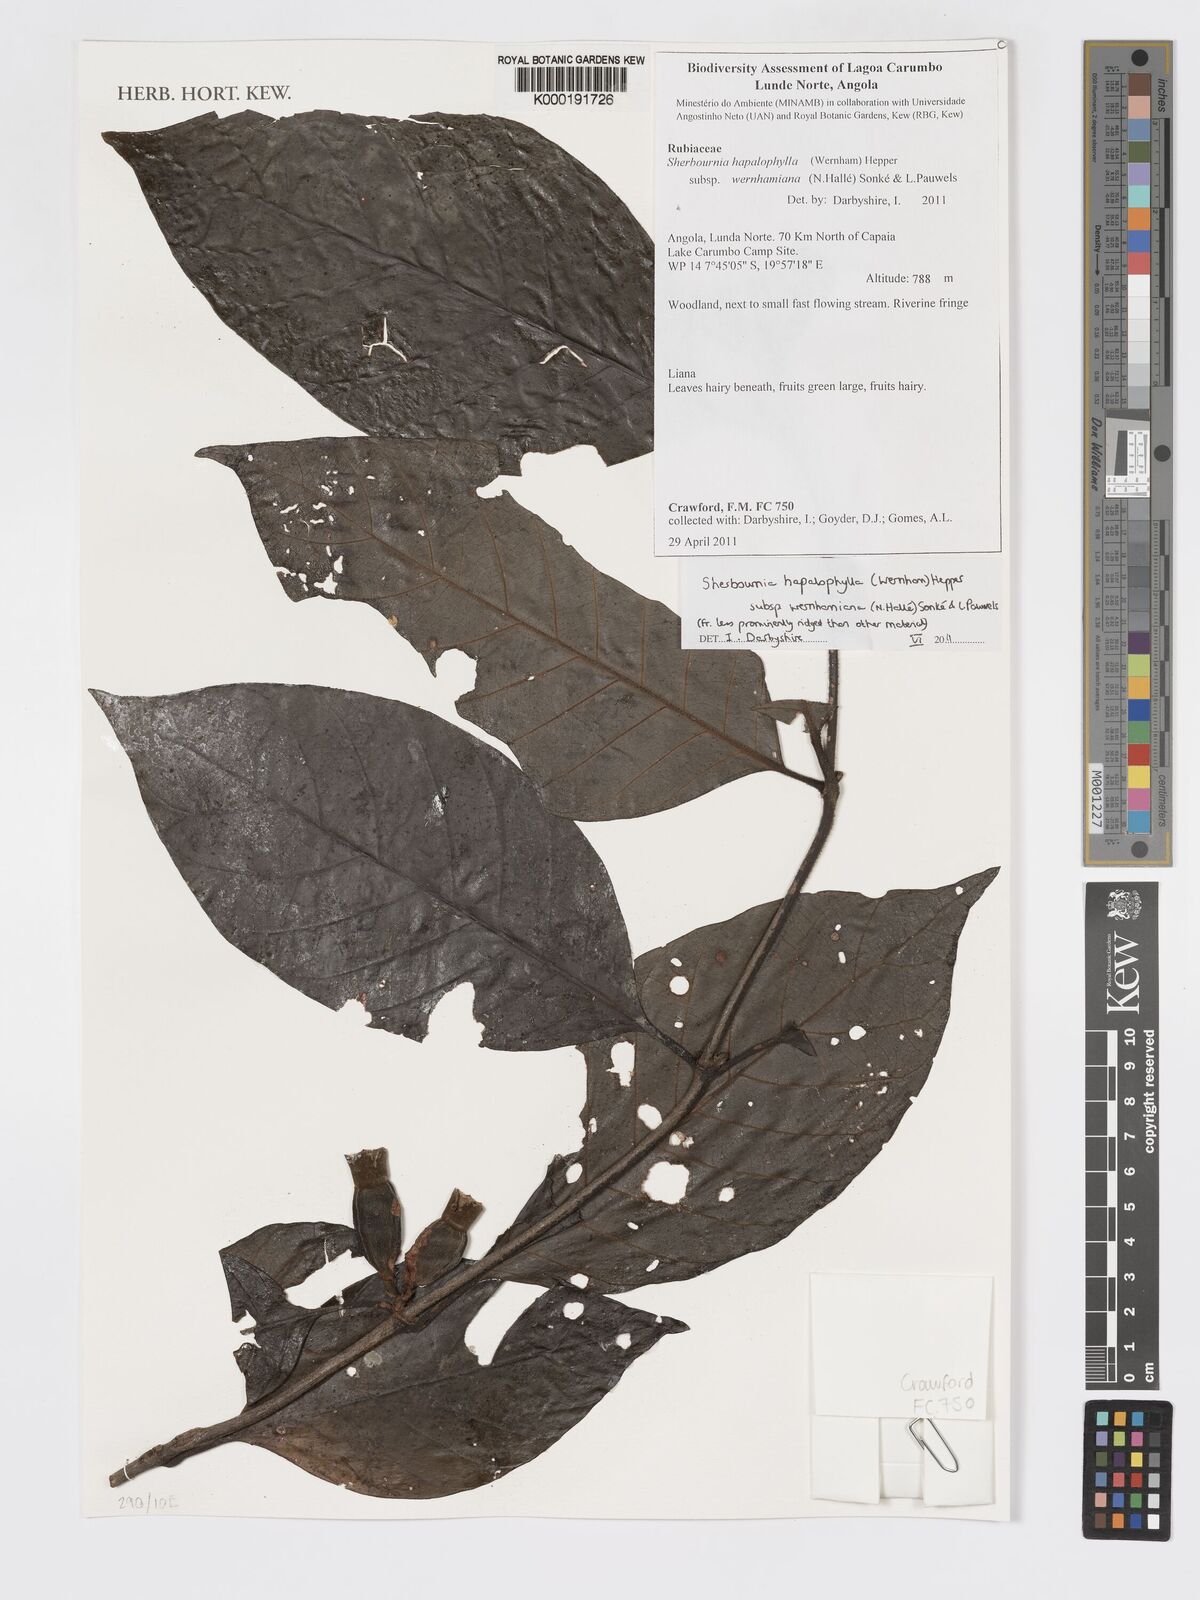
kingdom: Plantae
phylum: Tracheophyta
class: Magnoliopsida
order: Gentianales
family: Rubiaceae
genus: Sherbournia
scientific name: Sherbournia hapalophylla
